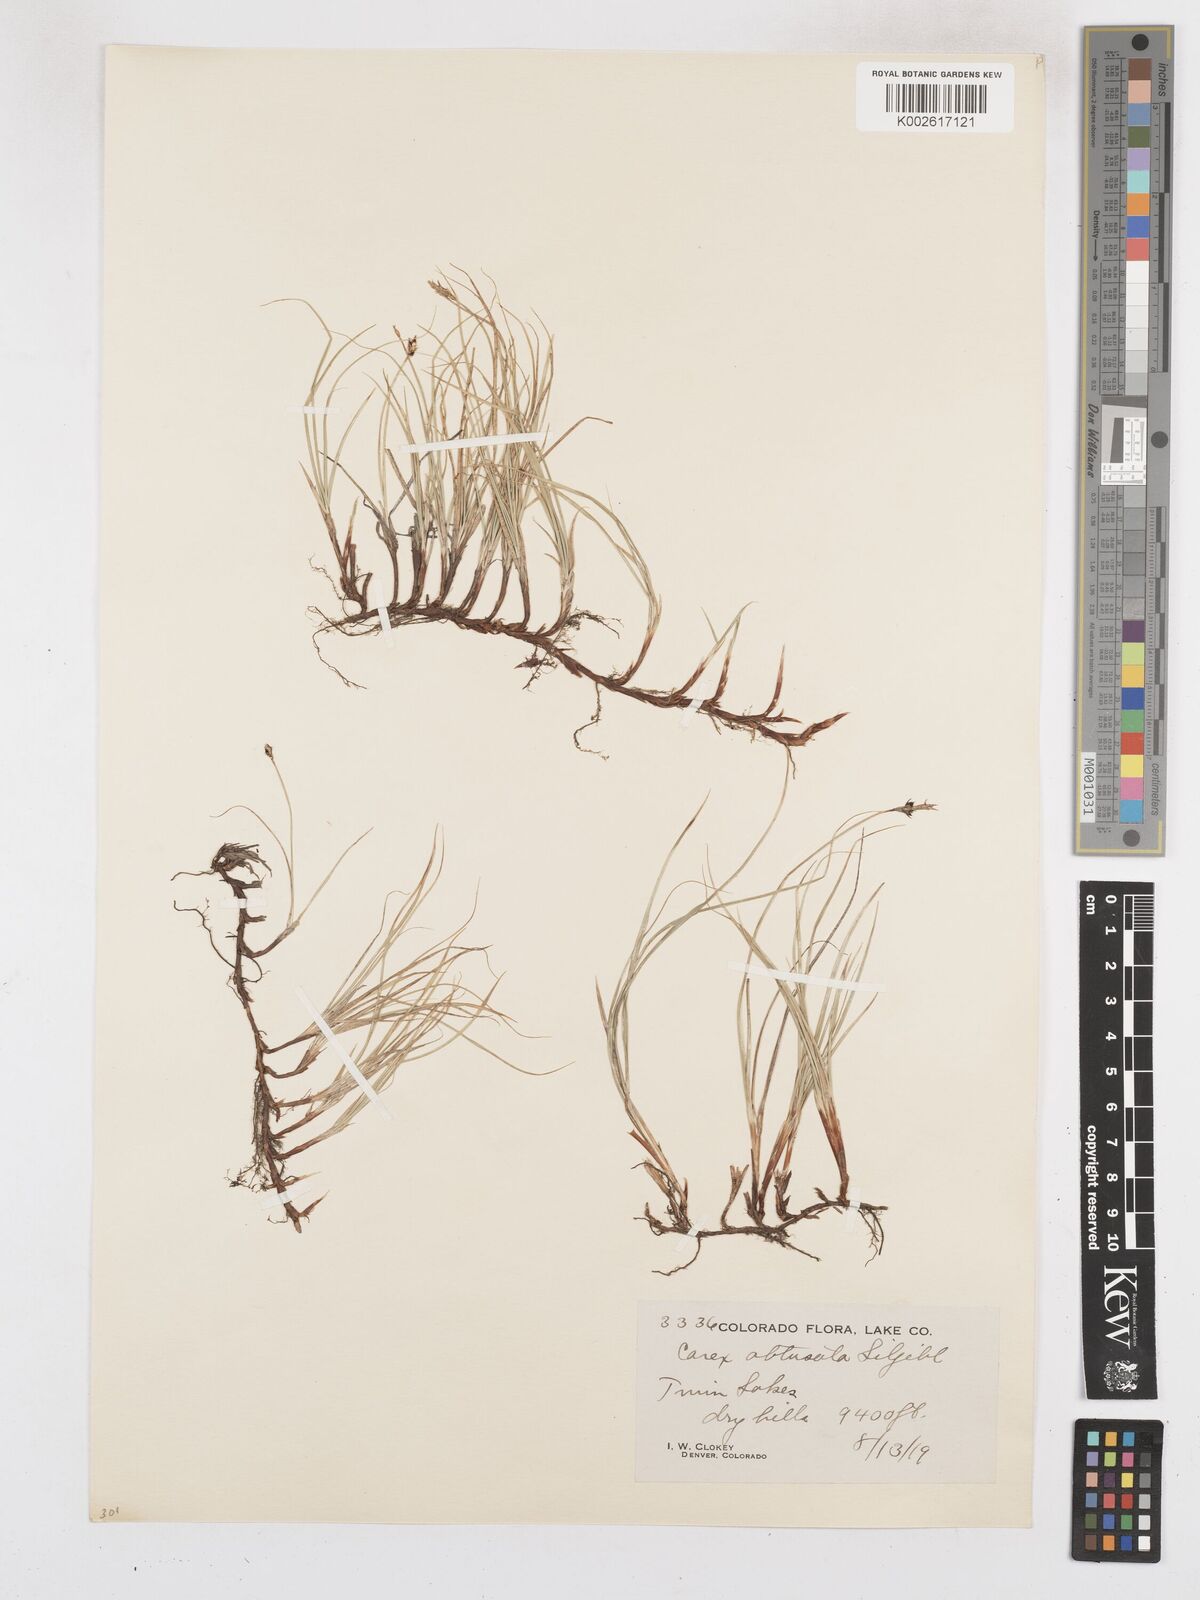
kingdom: Plantae
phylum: Tracheophyta
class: Liliopsida
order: Poales
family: Cyperaceae
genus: Carex
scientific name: Carex obtusata
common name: Blunt sedge
